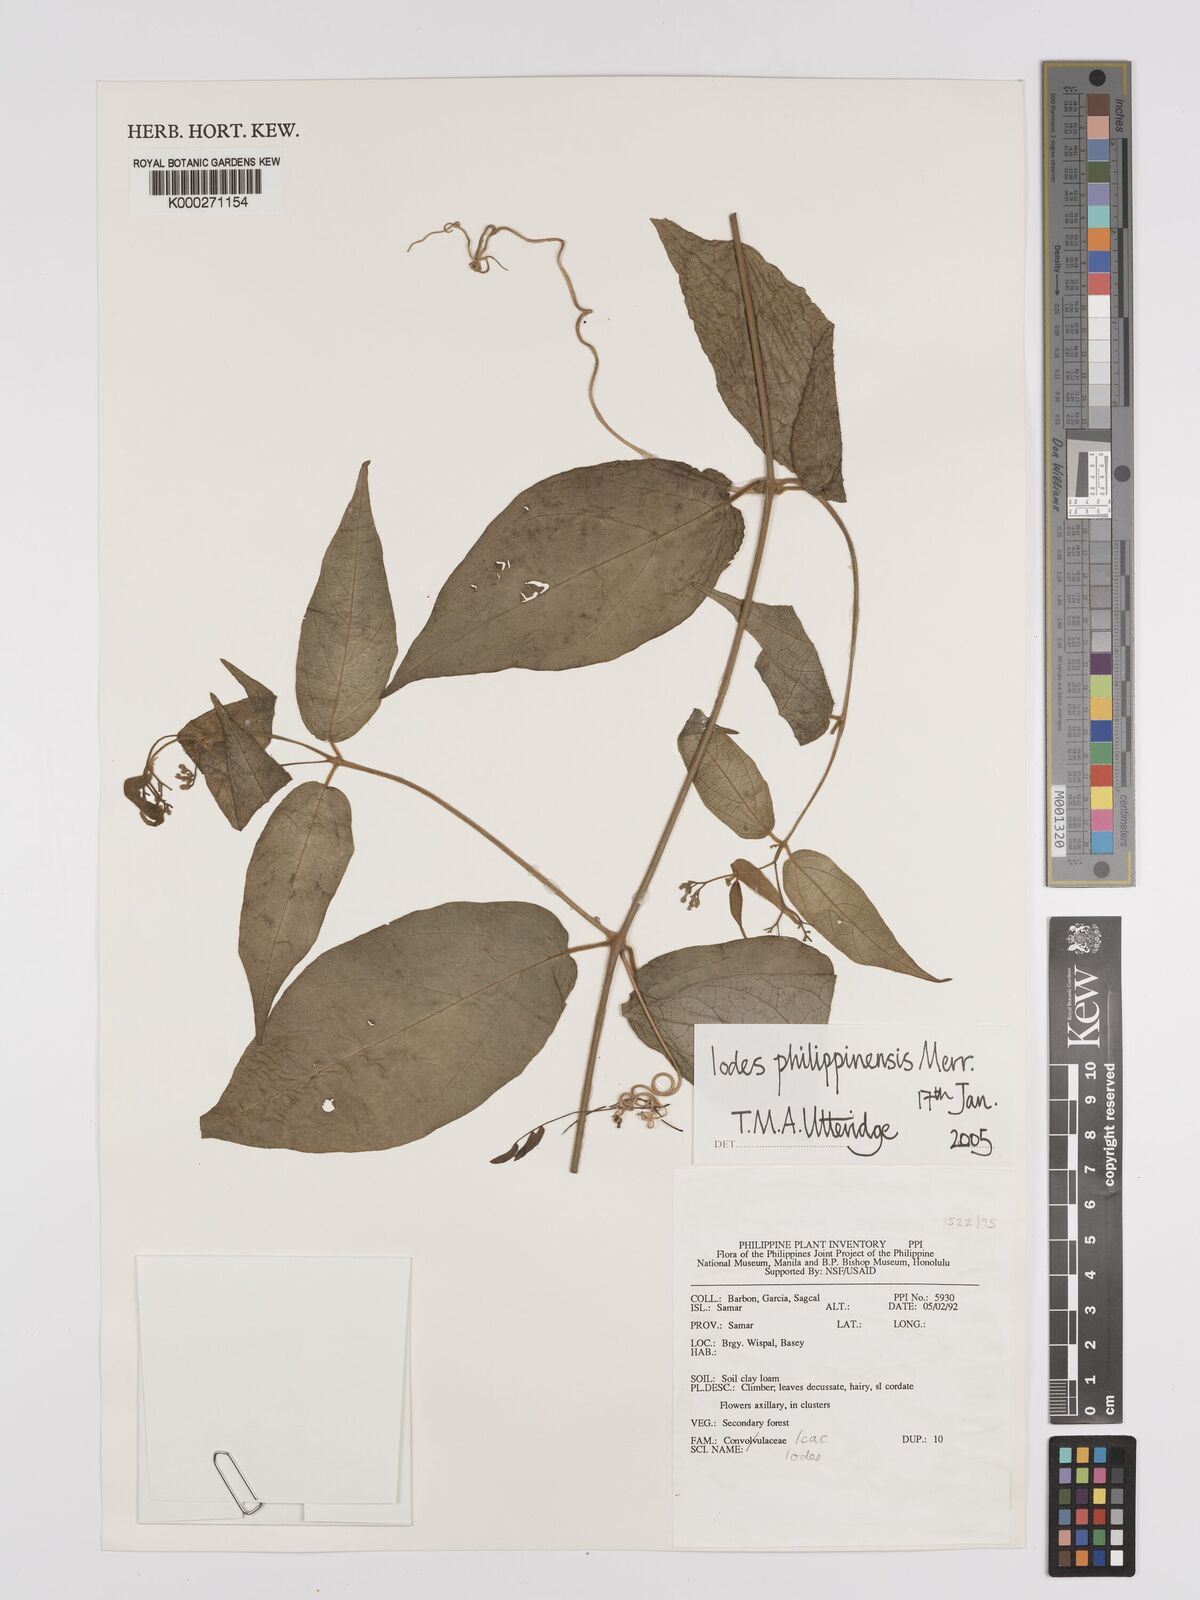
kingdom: Plantae
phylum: Tracheophyta
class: Magnoliopsida
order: Icacinales
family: Icacinaceae
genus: Iodes
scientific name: Iodes philippinensis
